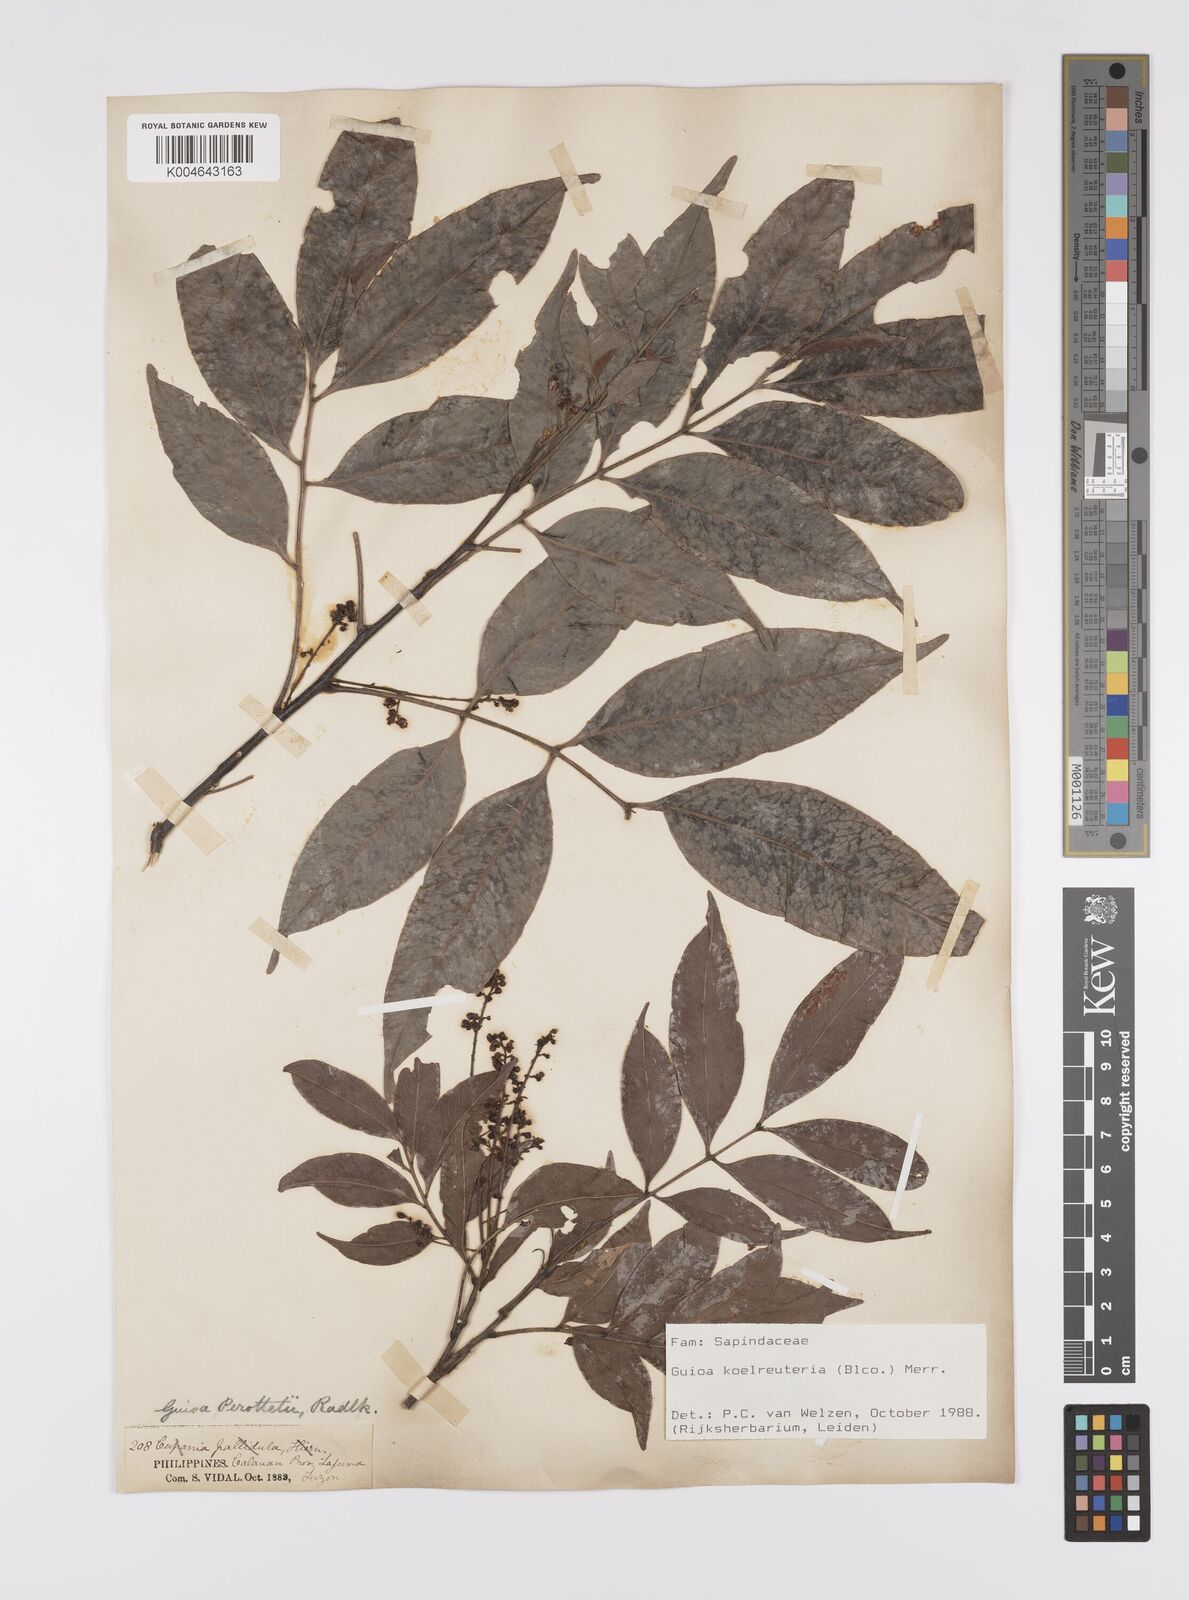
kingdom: Plantae
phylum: Tracheophyta
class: Magnoliopsida
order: Sapindales
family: Sapindaceae
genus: Guioa
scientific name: Guioa koelreuteria
